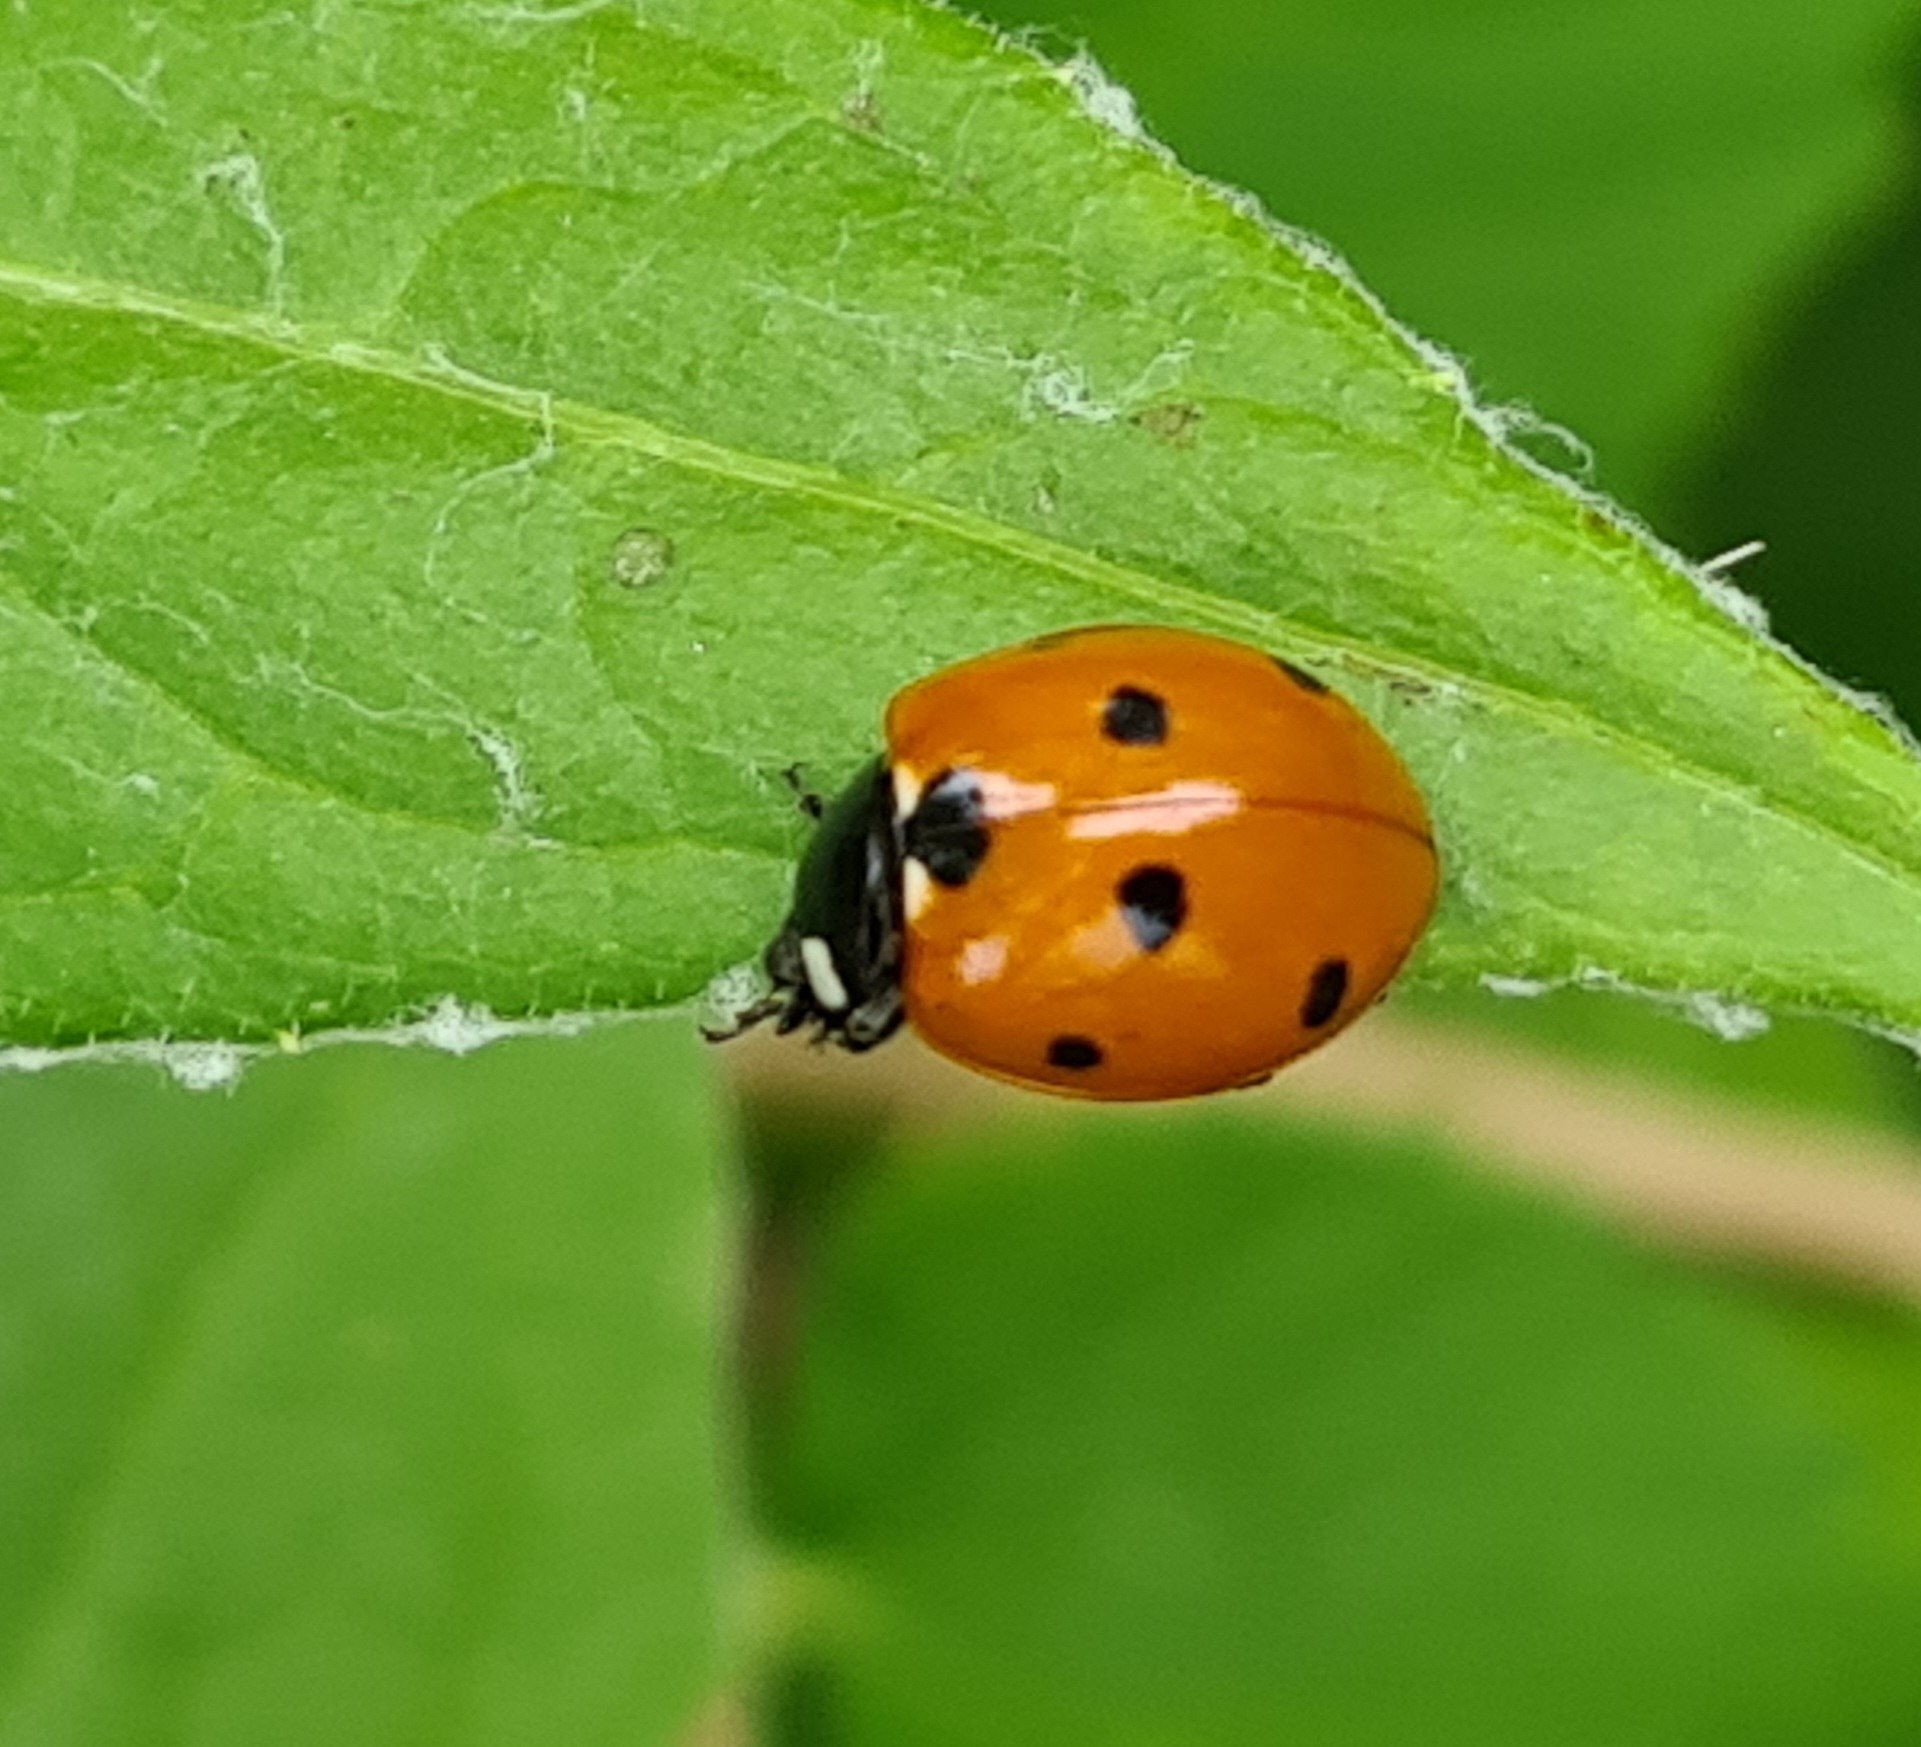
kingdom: Animalia
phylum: Arthropoda
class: Insecta
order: Coleoptera
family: Coccinellidae
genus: Coccinella
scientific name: Coccinella septempunctata
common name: Syvplettet mariehøne
